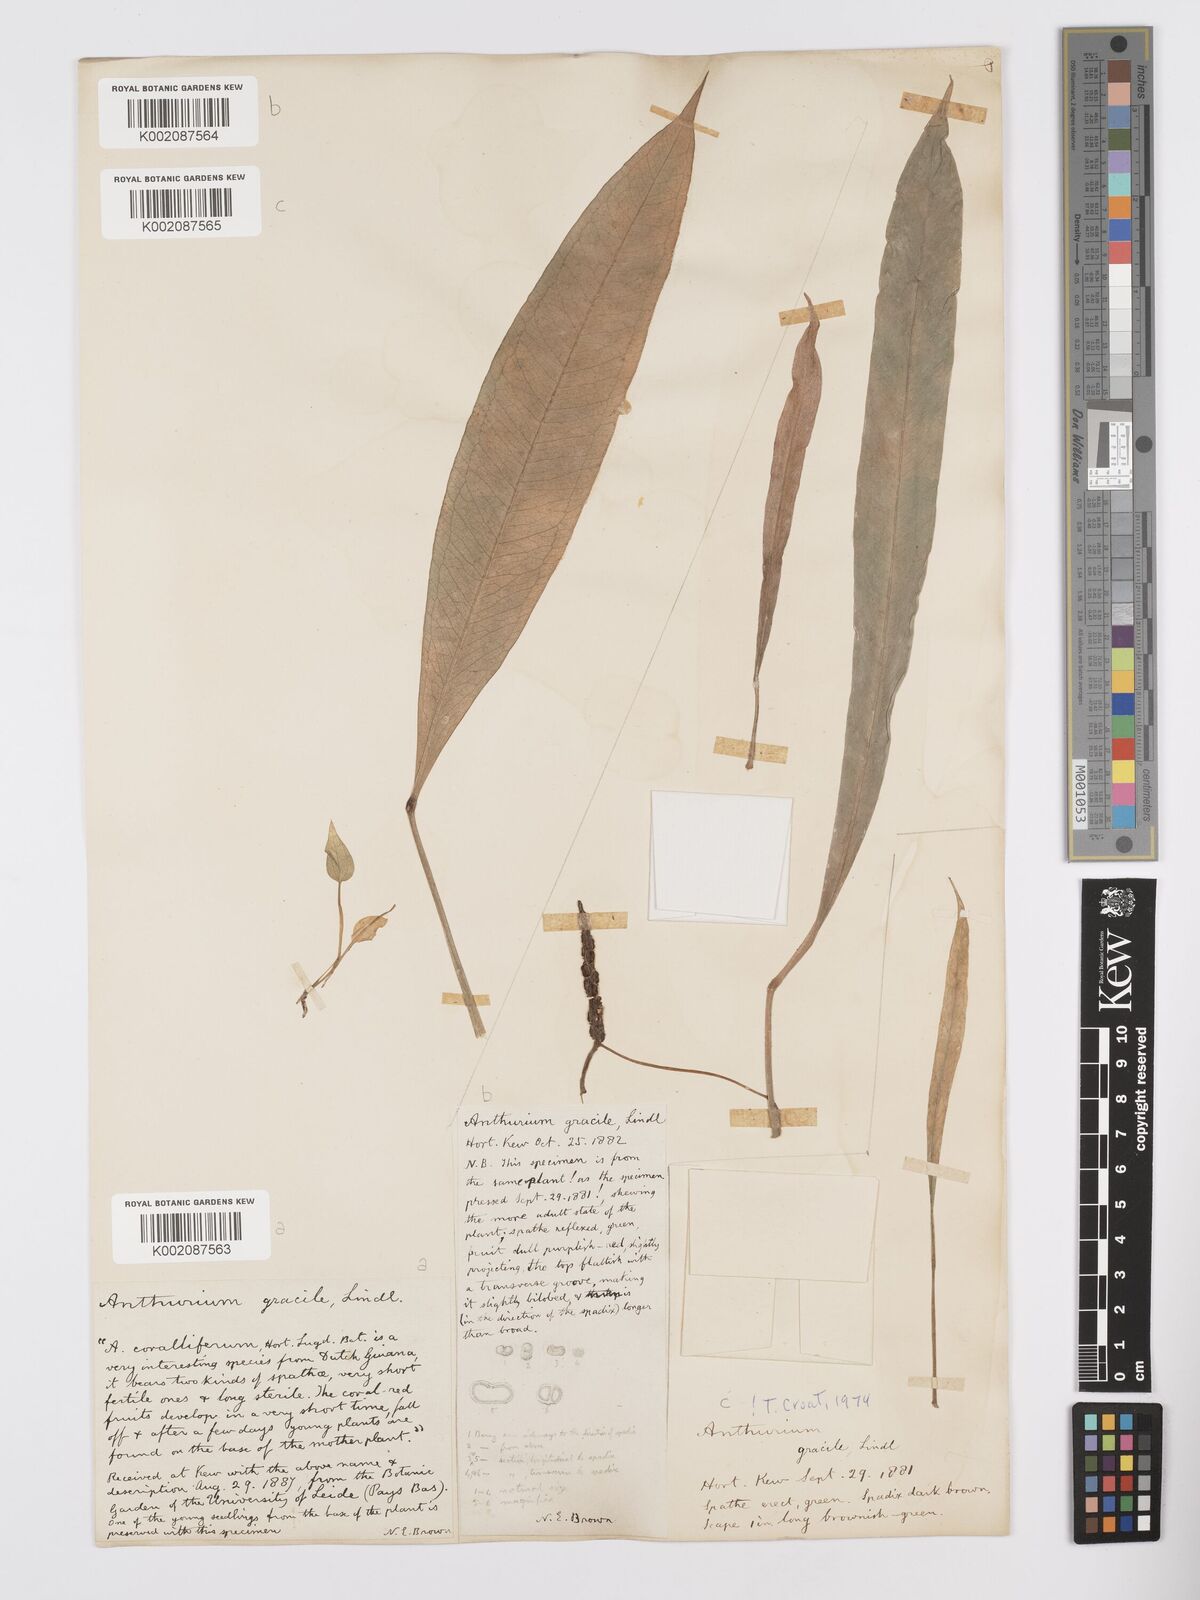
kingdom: Plantae
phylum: Tracheophyta
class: Liliopsida
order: Alismatales
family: Araceae
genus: Anthurium
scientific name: Anthurium gracile
